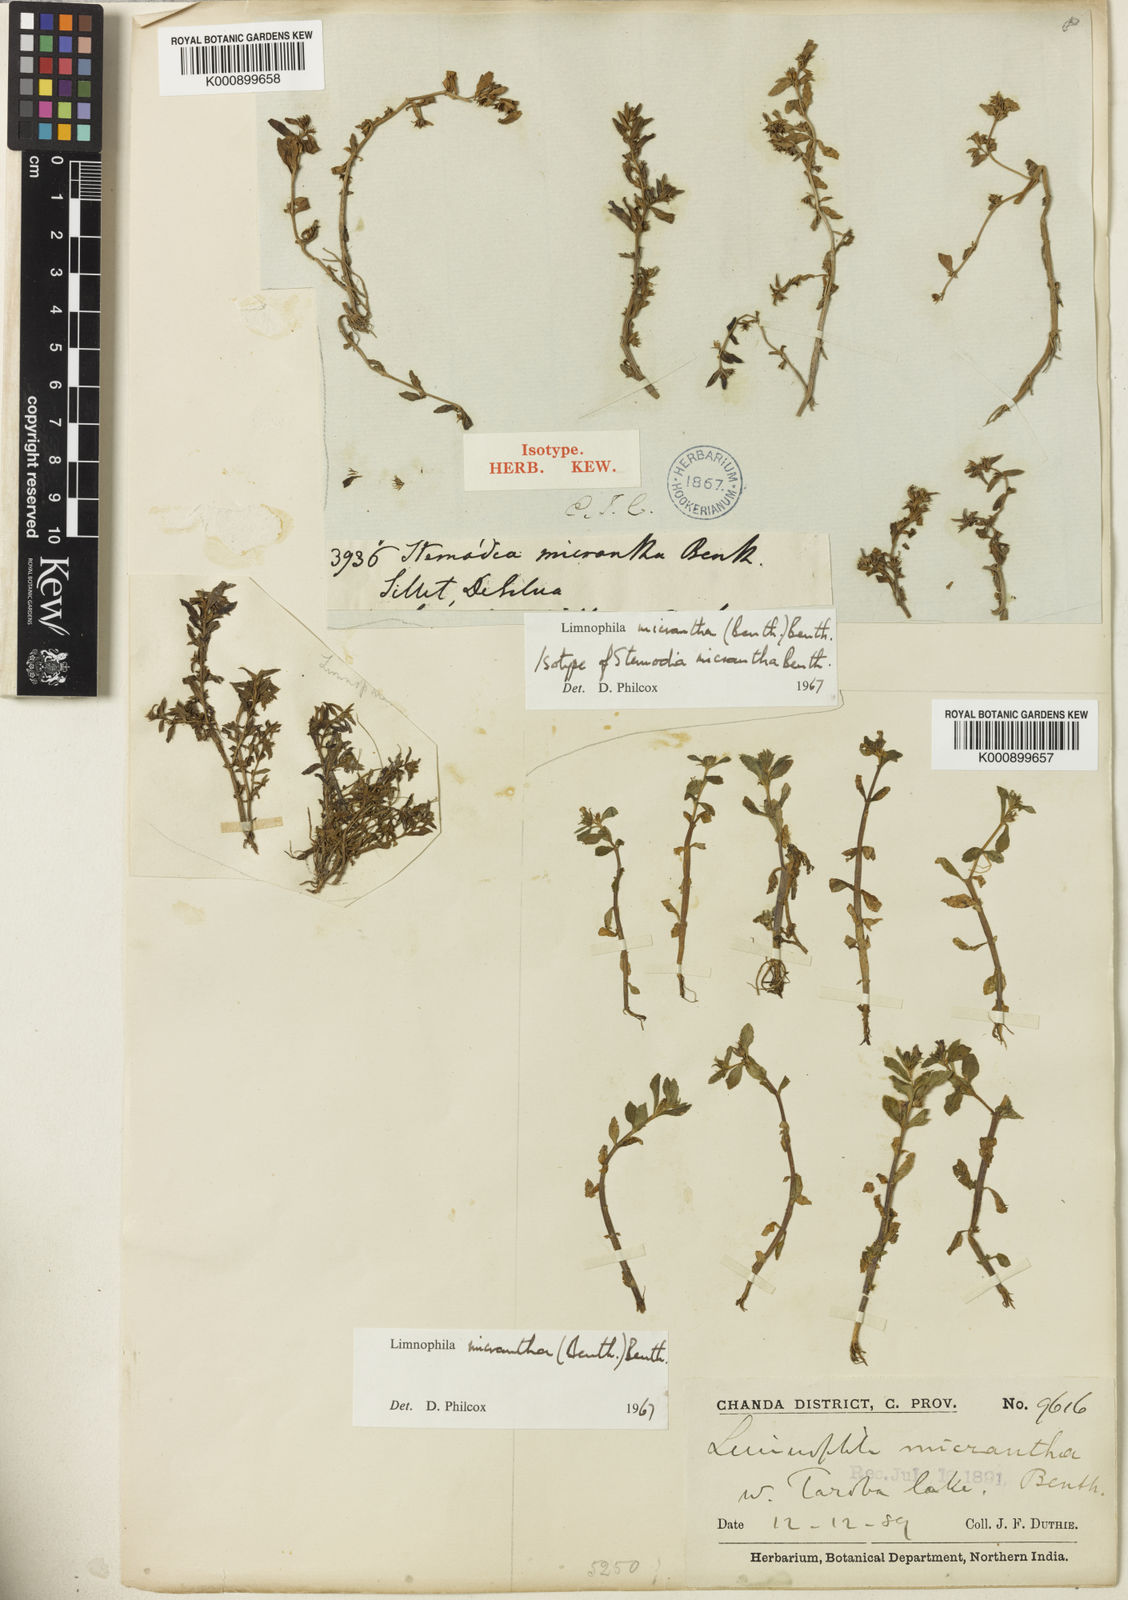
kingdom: Plantae
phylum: Tracheophyta
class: Magnoliopsida
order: Lamiales
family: Plantaginaceae
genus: Limnophila
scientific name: Limnophila micrantha
